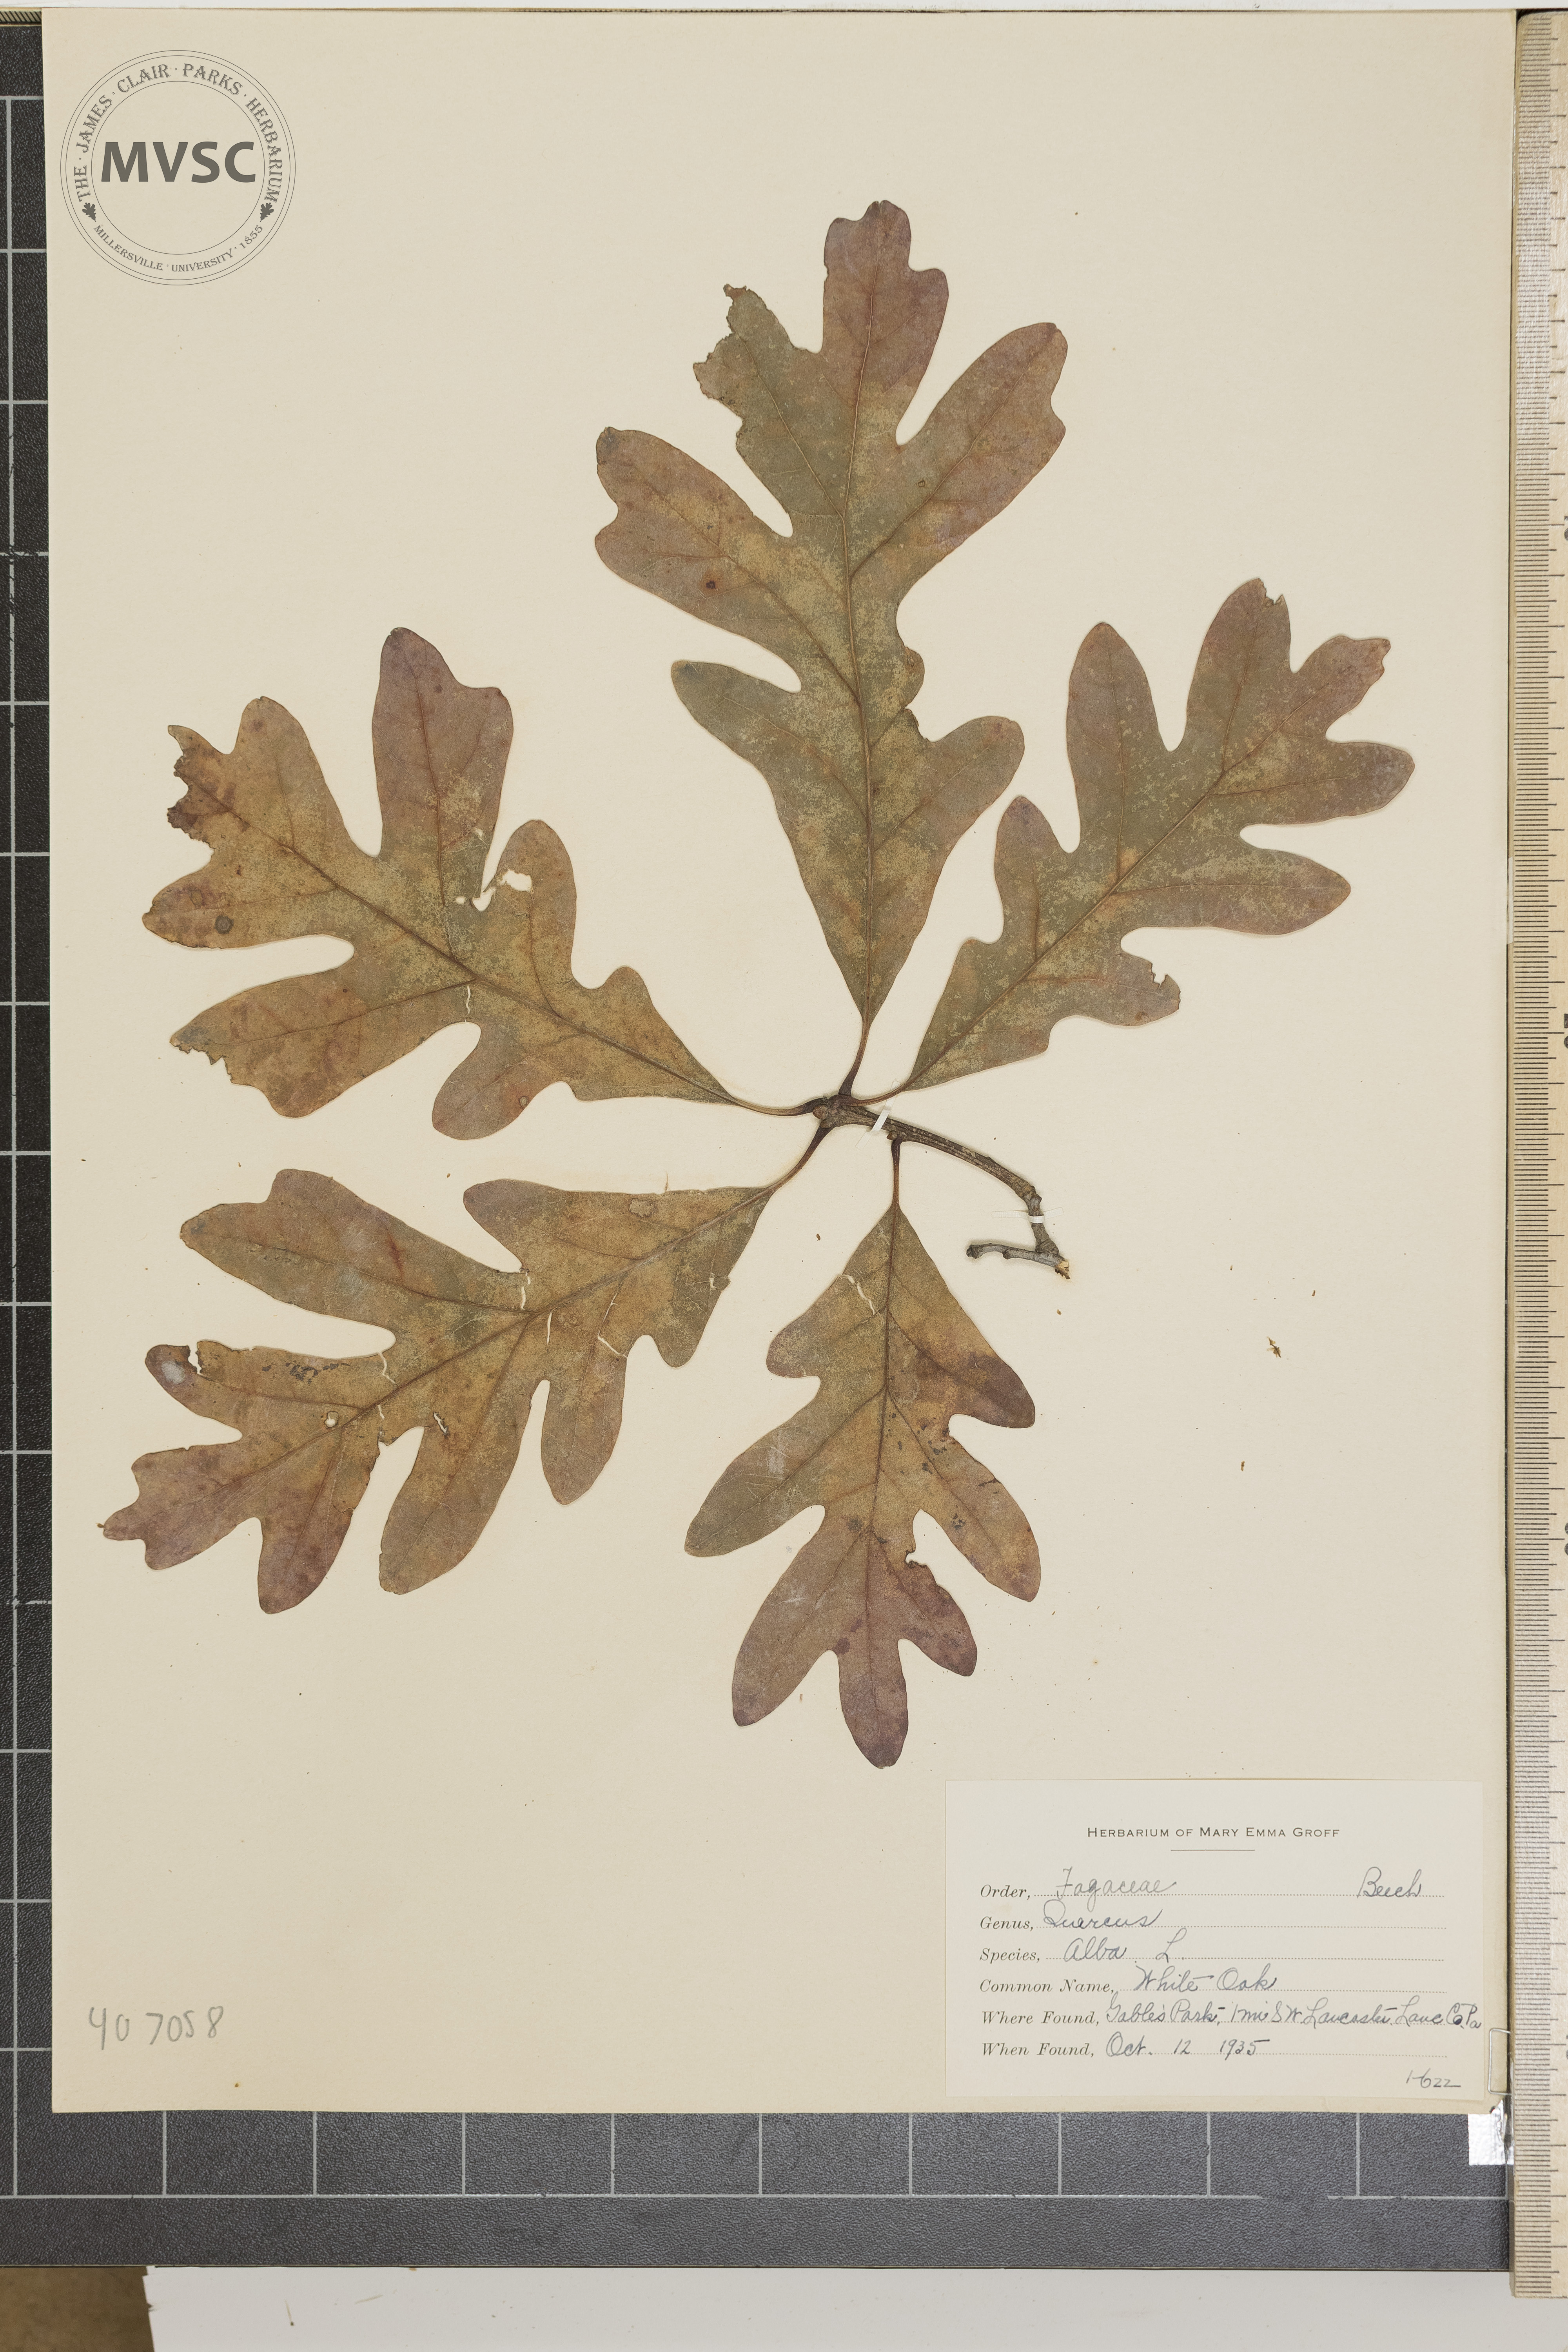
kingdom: Plantae
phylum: Tracheophyta
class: Magnoliopsida
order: Fagales
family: Fagaceae
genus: Quercus
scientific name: Quercus alba
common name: White oak
